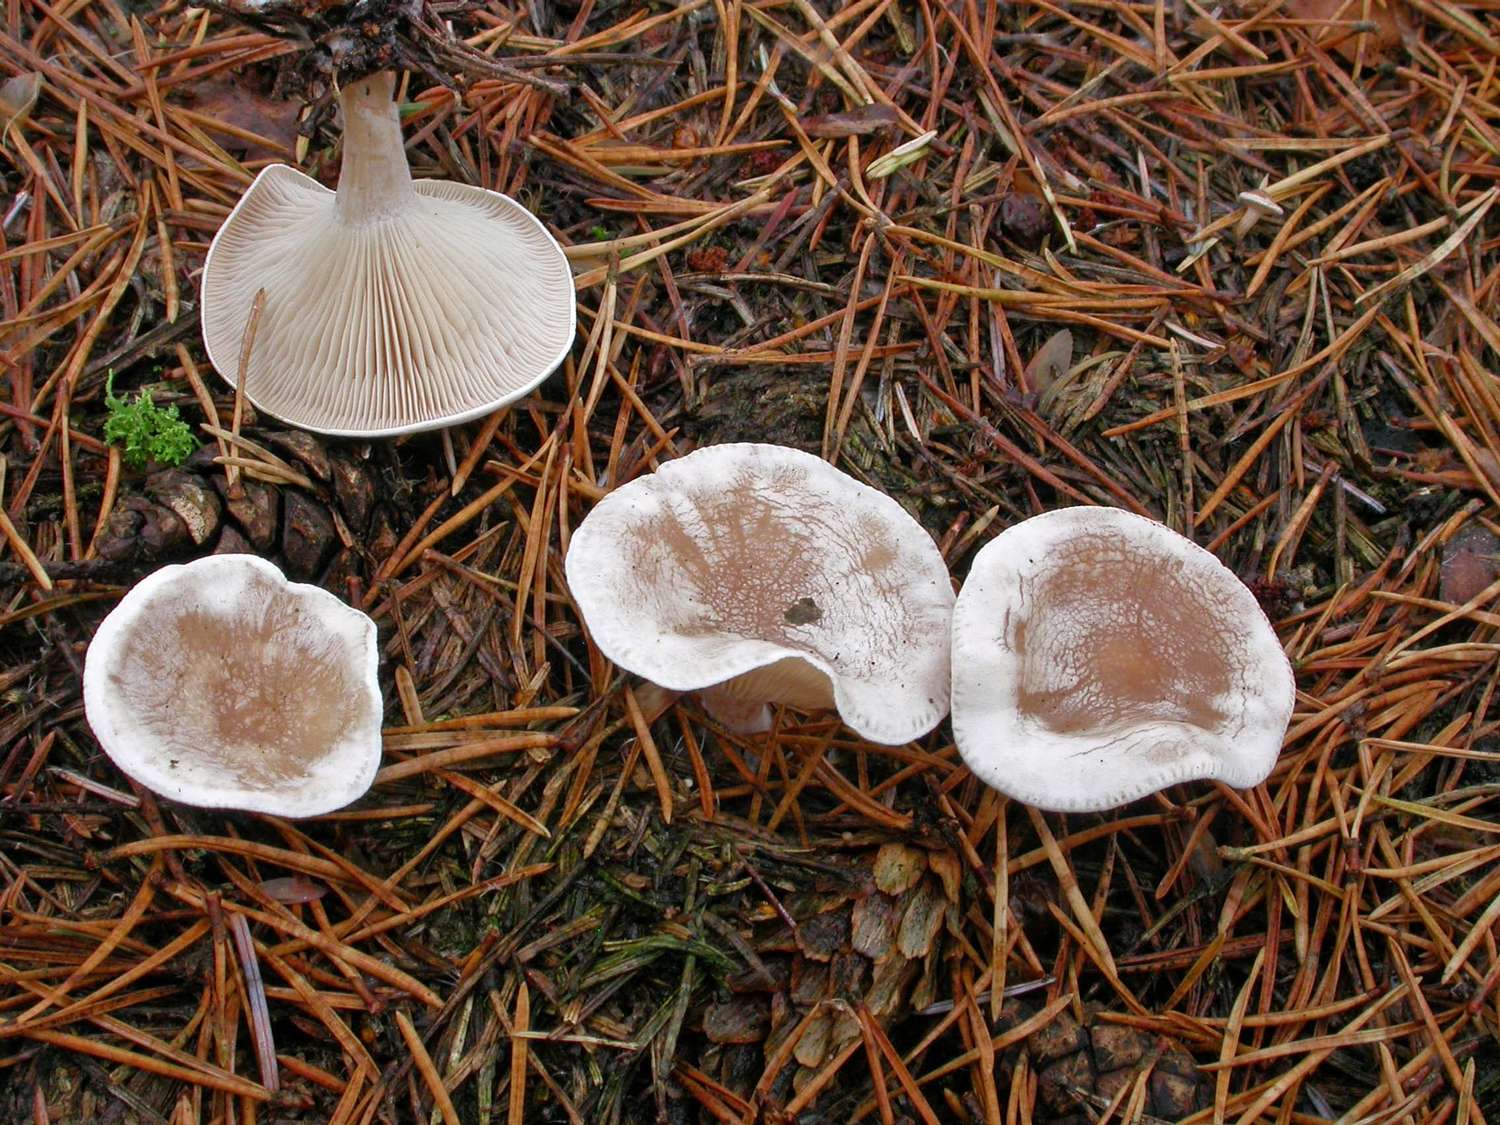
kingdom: Fungi
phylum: Basidiomycota
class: Agaricomycetes
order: Agaricales
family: Tricholomataceae
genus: Clitocybe
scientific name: Clitocybe phyllophila
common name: løv-tragthat
